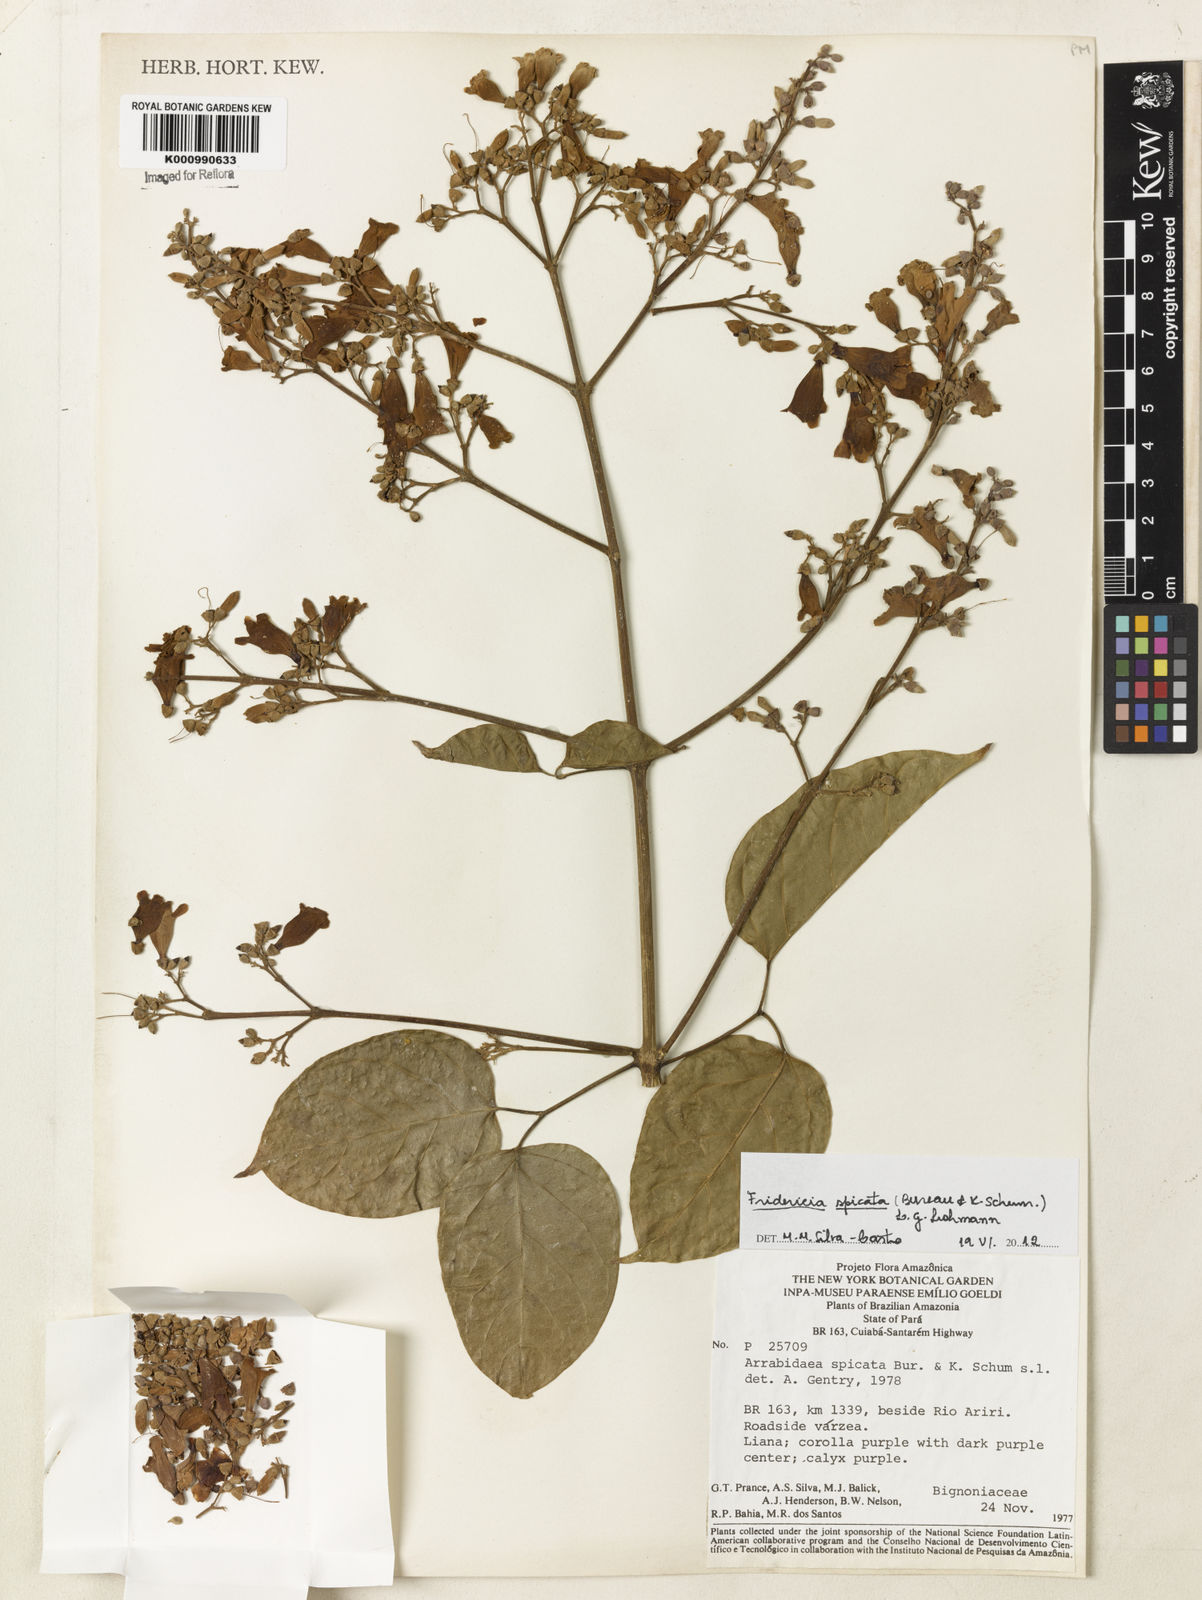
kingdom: Plantae
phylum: Tracheophyta
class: Magnoliopsida
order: Lamiales
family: Bignoniaceae
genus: Fridericia
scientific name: Fridericia spicata
